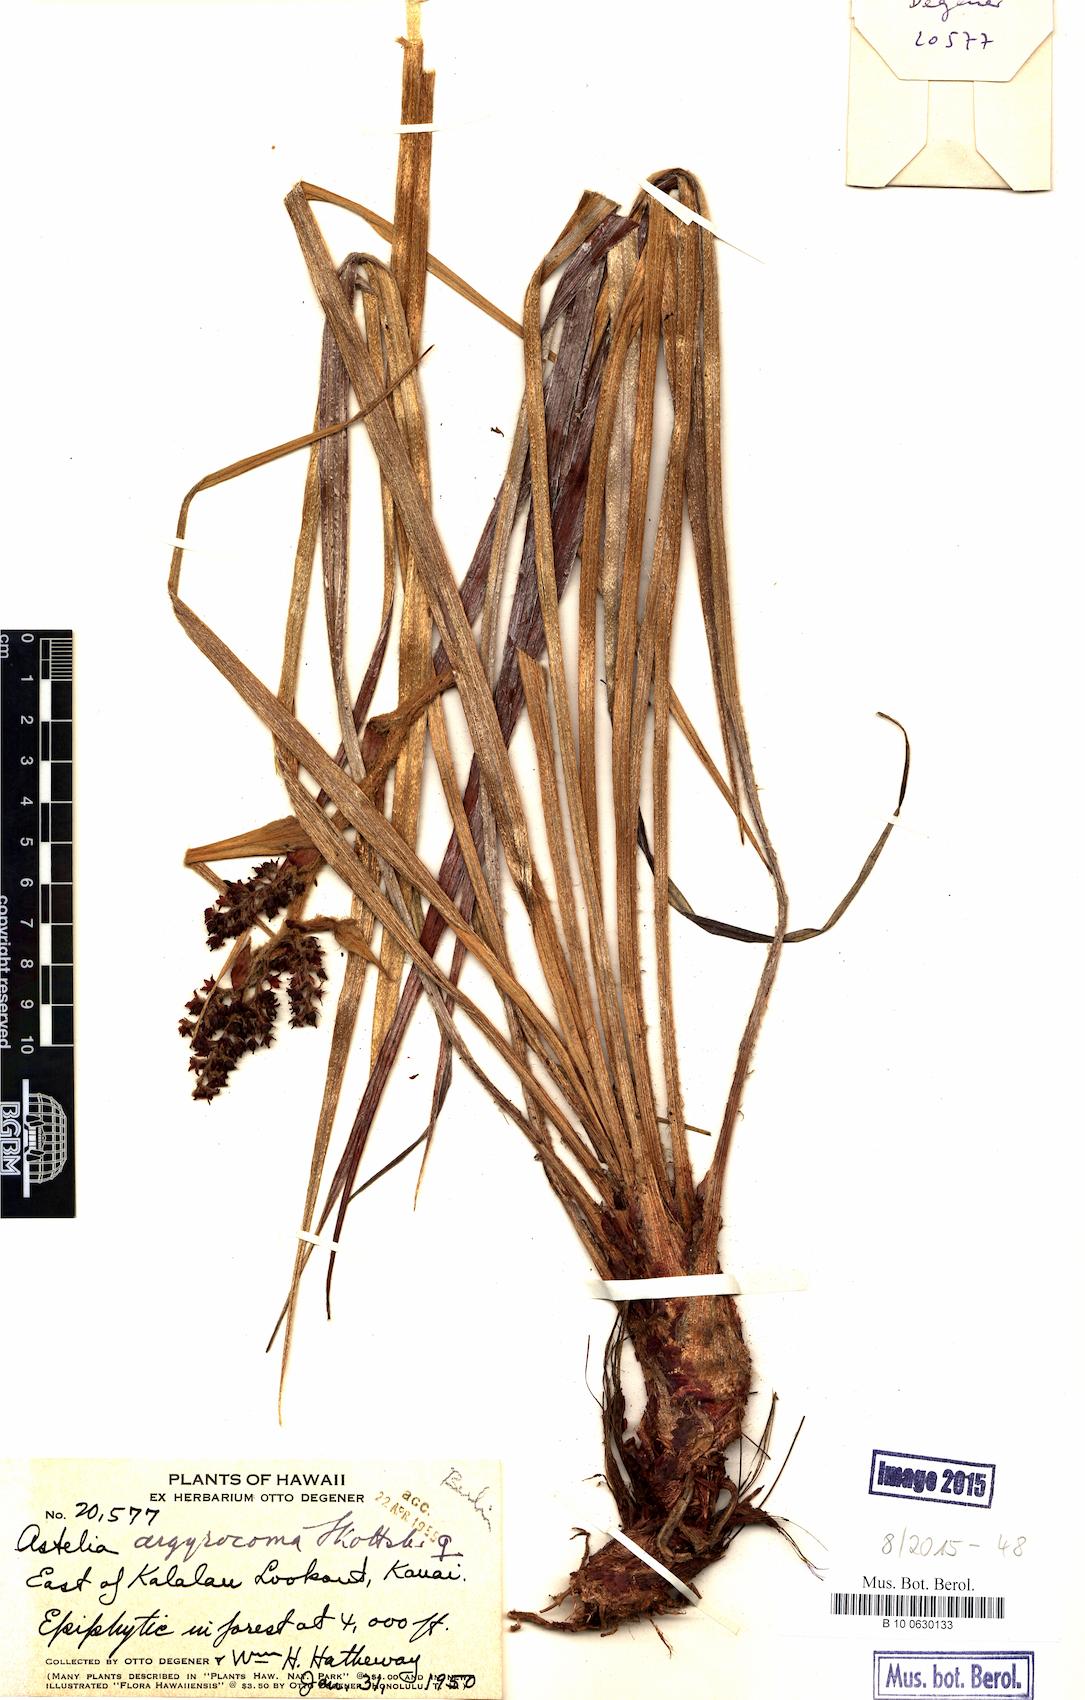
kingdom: Plantae
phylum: Tracheophyta
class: Liliopsida
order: Asparagales
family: Asteliaceae
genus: Astelia
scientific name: Astelia argyrocoma
